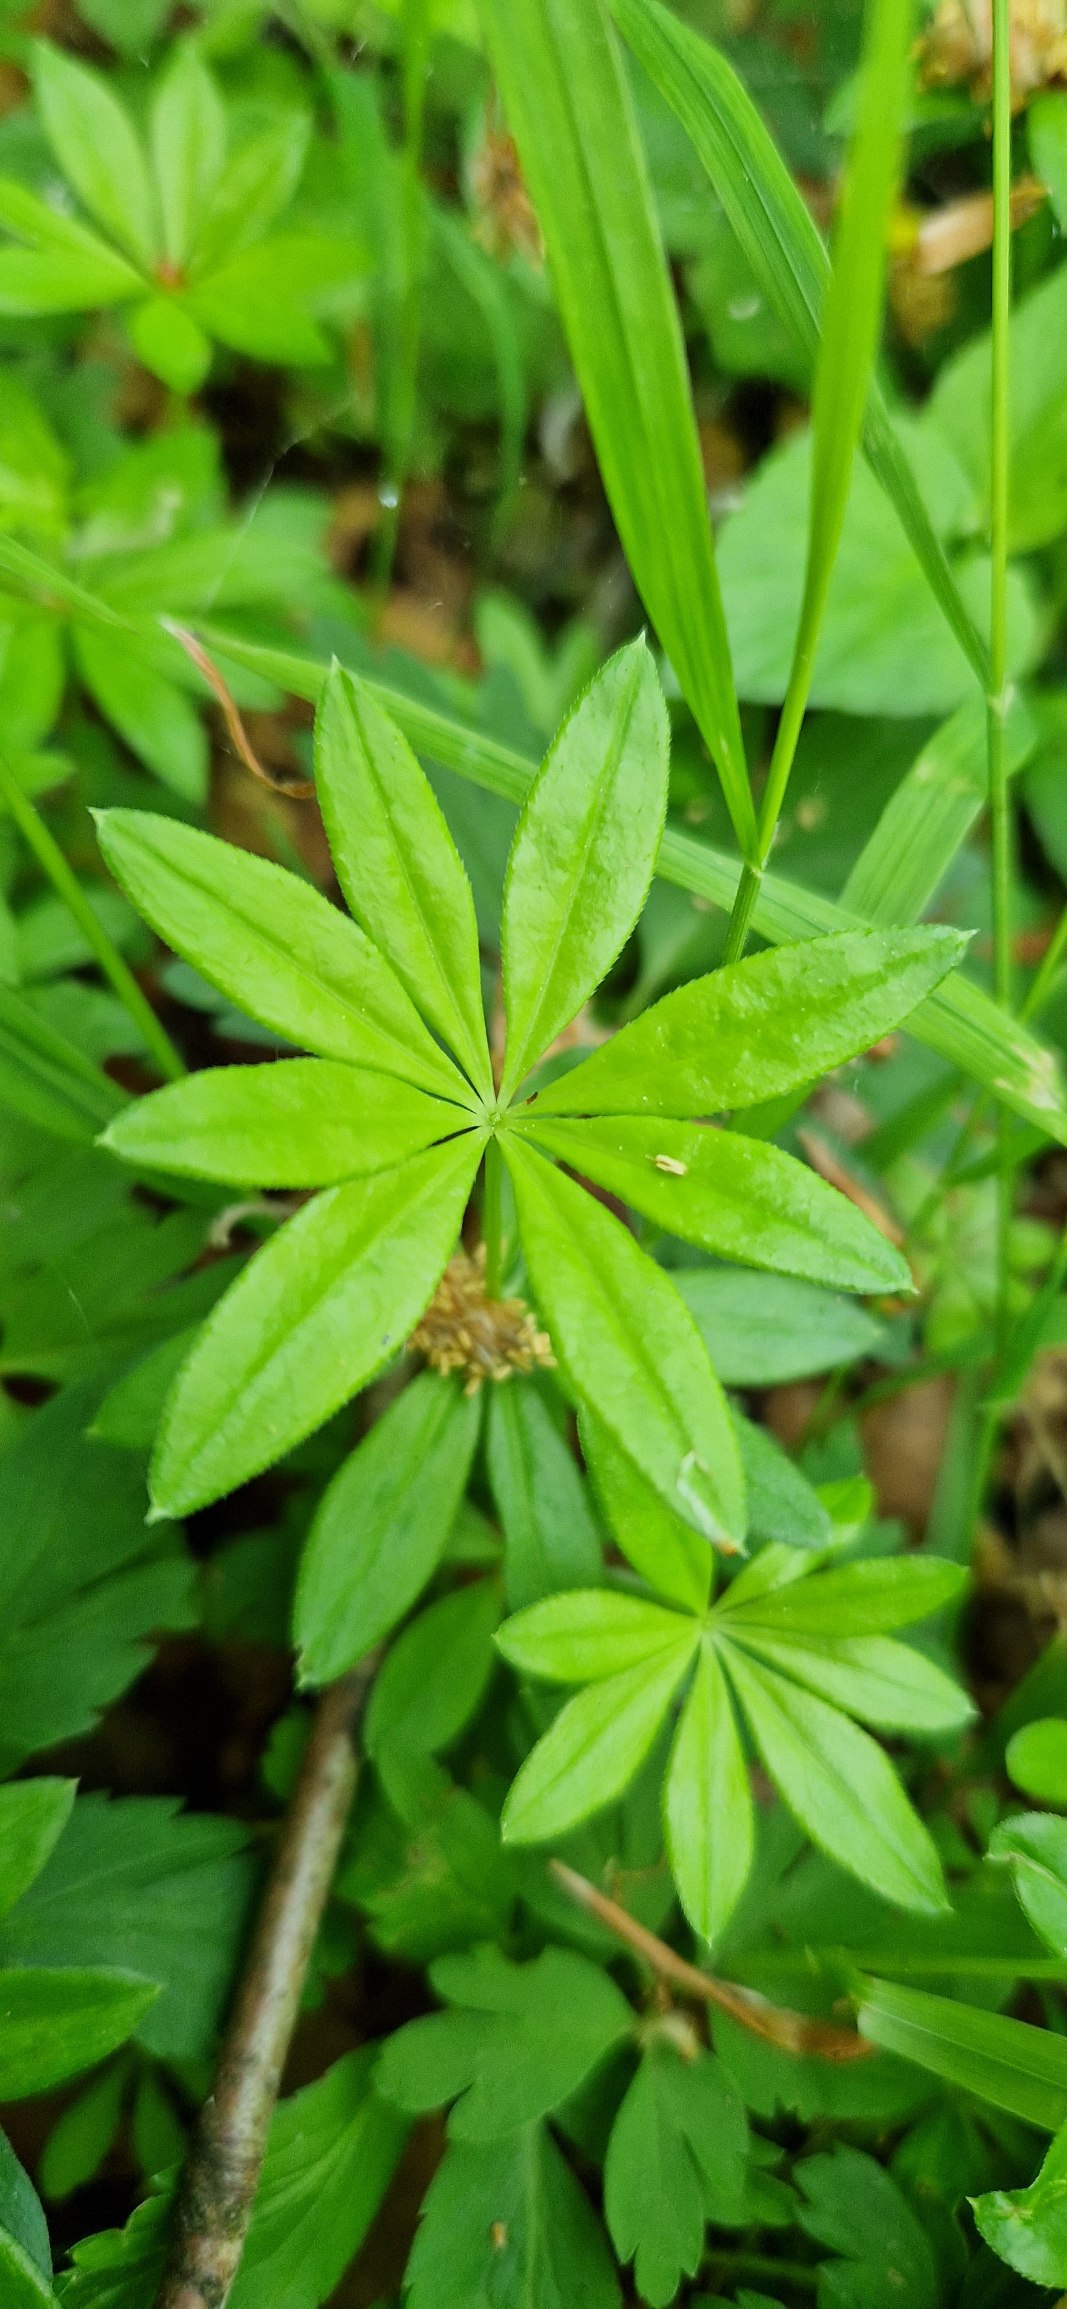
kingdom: Plantae
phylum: Tracheophyta
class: Magnoliopsida
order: Gentianales
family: Rubiaceae
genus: Galium
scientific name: Galium odoratum
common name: Skovmærke
